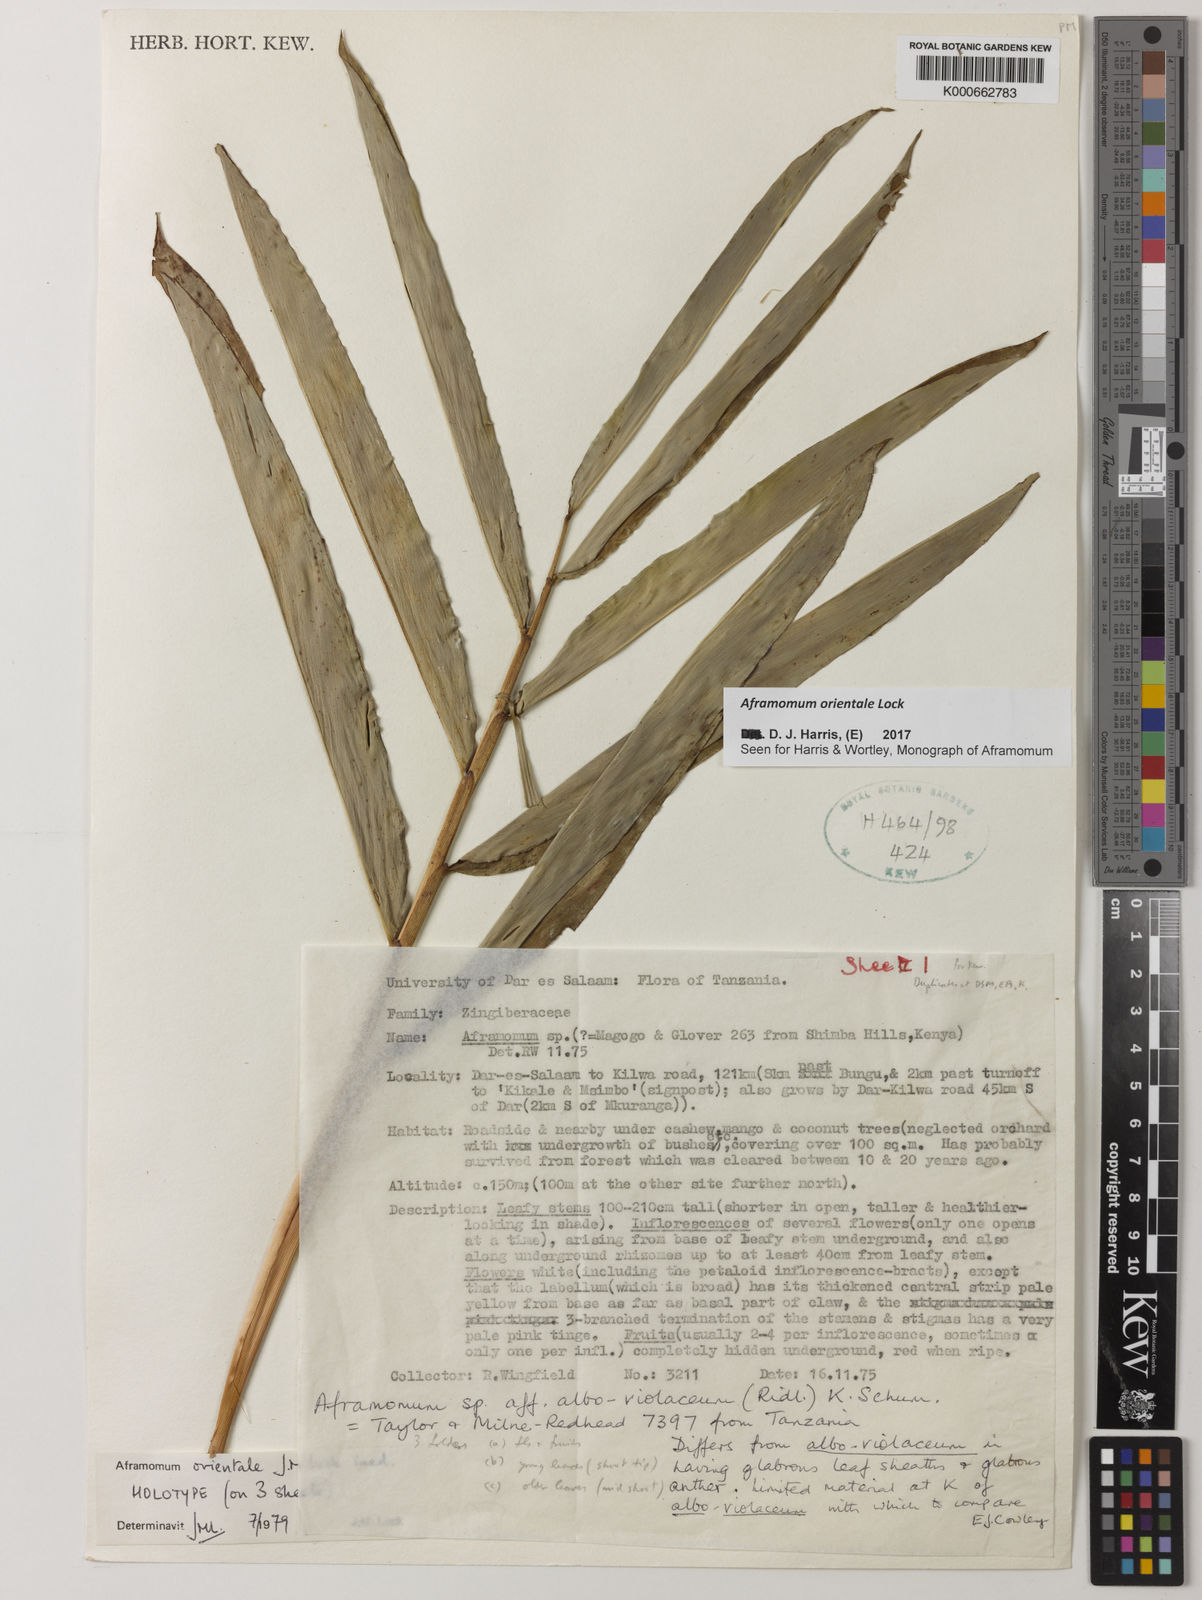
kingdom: Plantae
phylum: Tracheophyta
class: Liliopsida
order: Zingiberales
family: Zingiberaceae
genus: Aframomum
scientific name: Aframomum orientale
